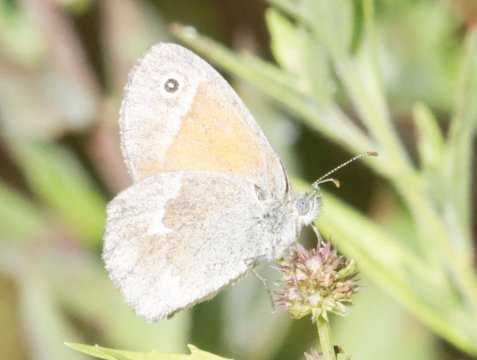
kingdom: Animalia
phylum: Arthropoda
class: Insecta
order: Lepidoptera
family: Nymphalidae
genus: Coenonympha
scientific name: Coenonympha tullia
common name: Large Heath
